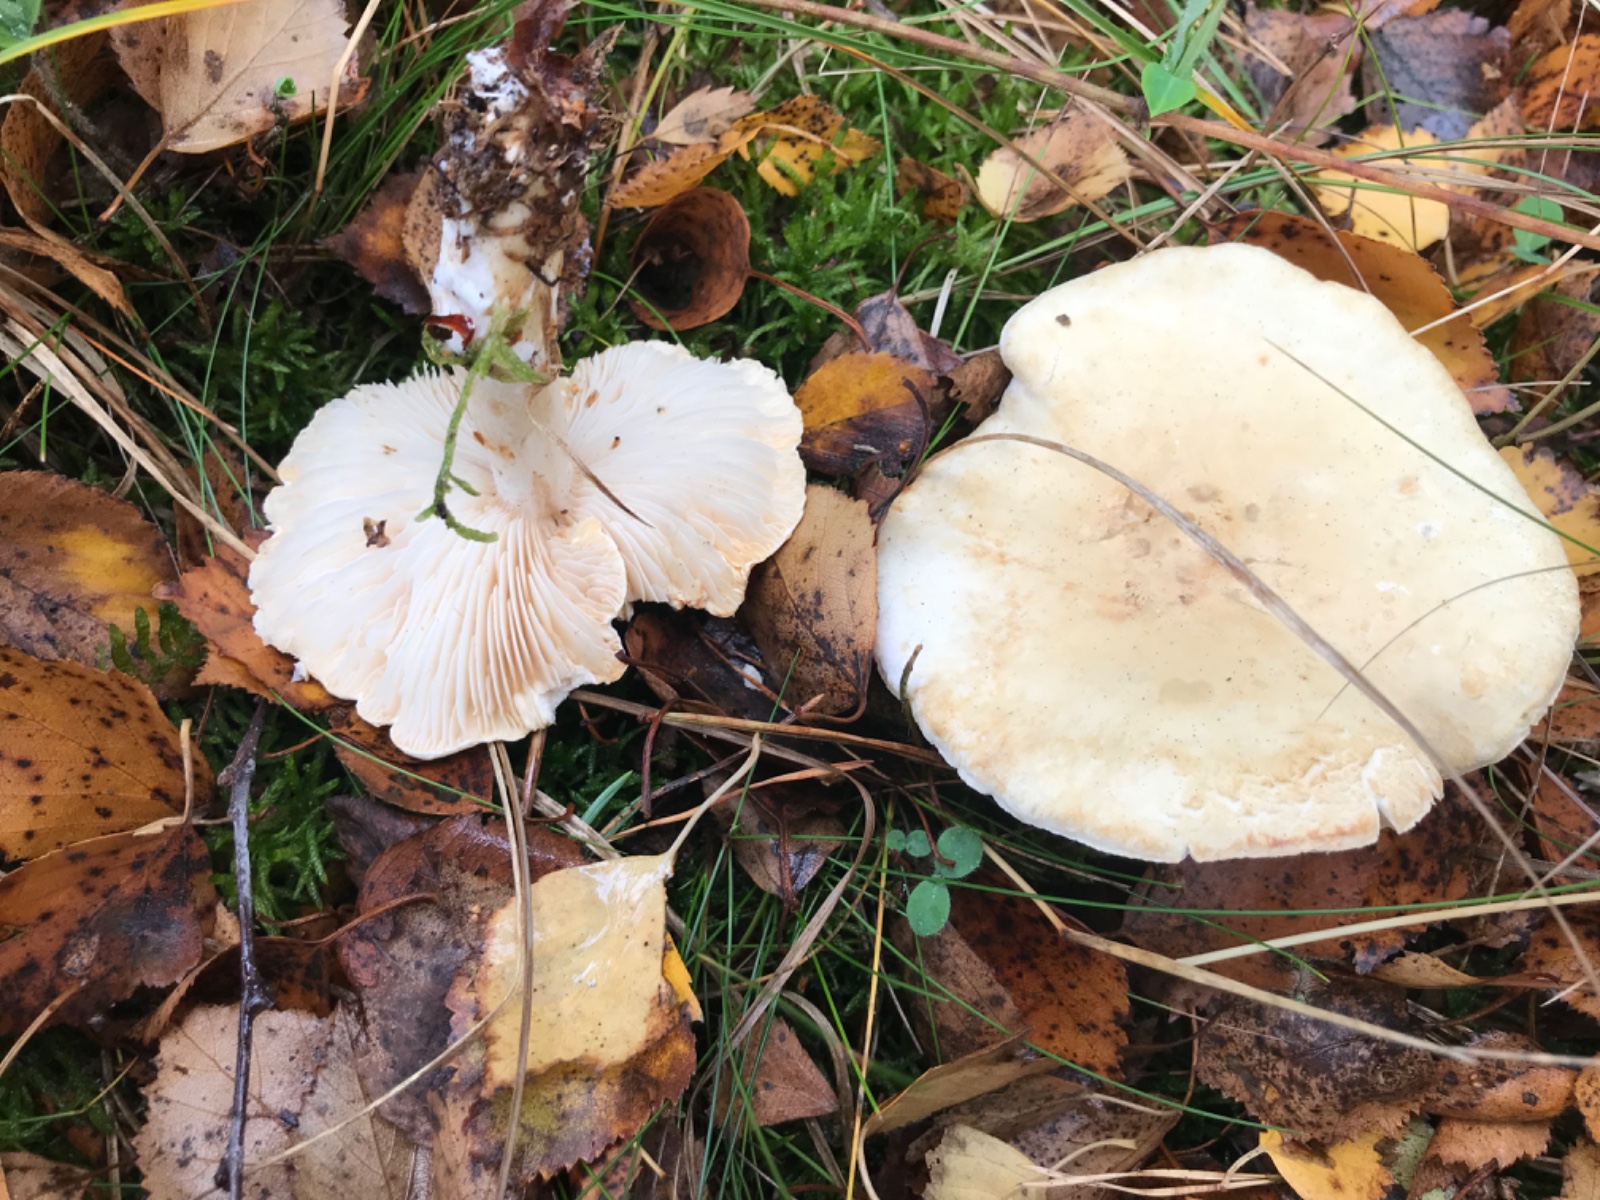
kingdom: Fungi
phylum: Basidiomycota
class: Agaricomycetes
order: Agaricales
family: Tricholomataceae
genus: Tricholoma
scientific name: Tricholoma stiparophyllum
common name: hvid ridderhat
